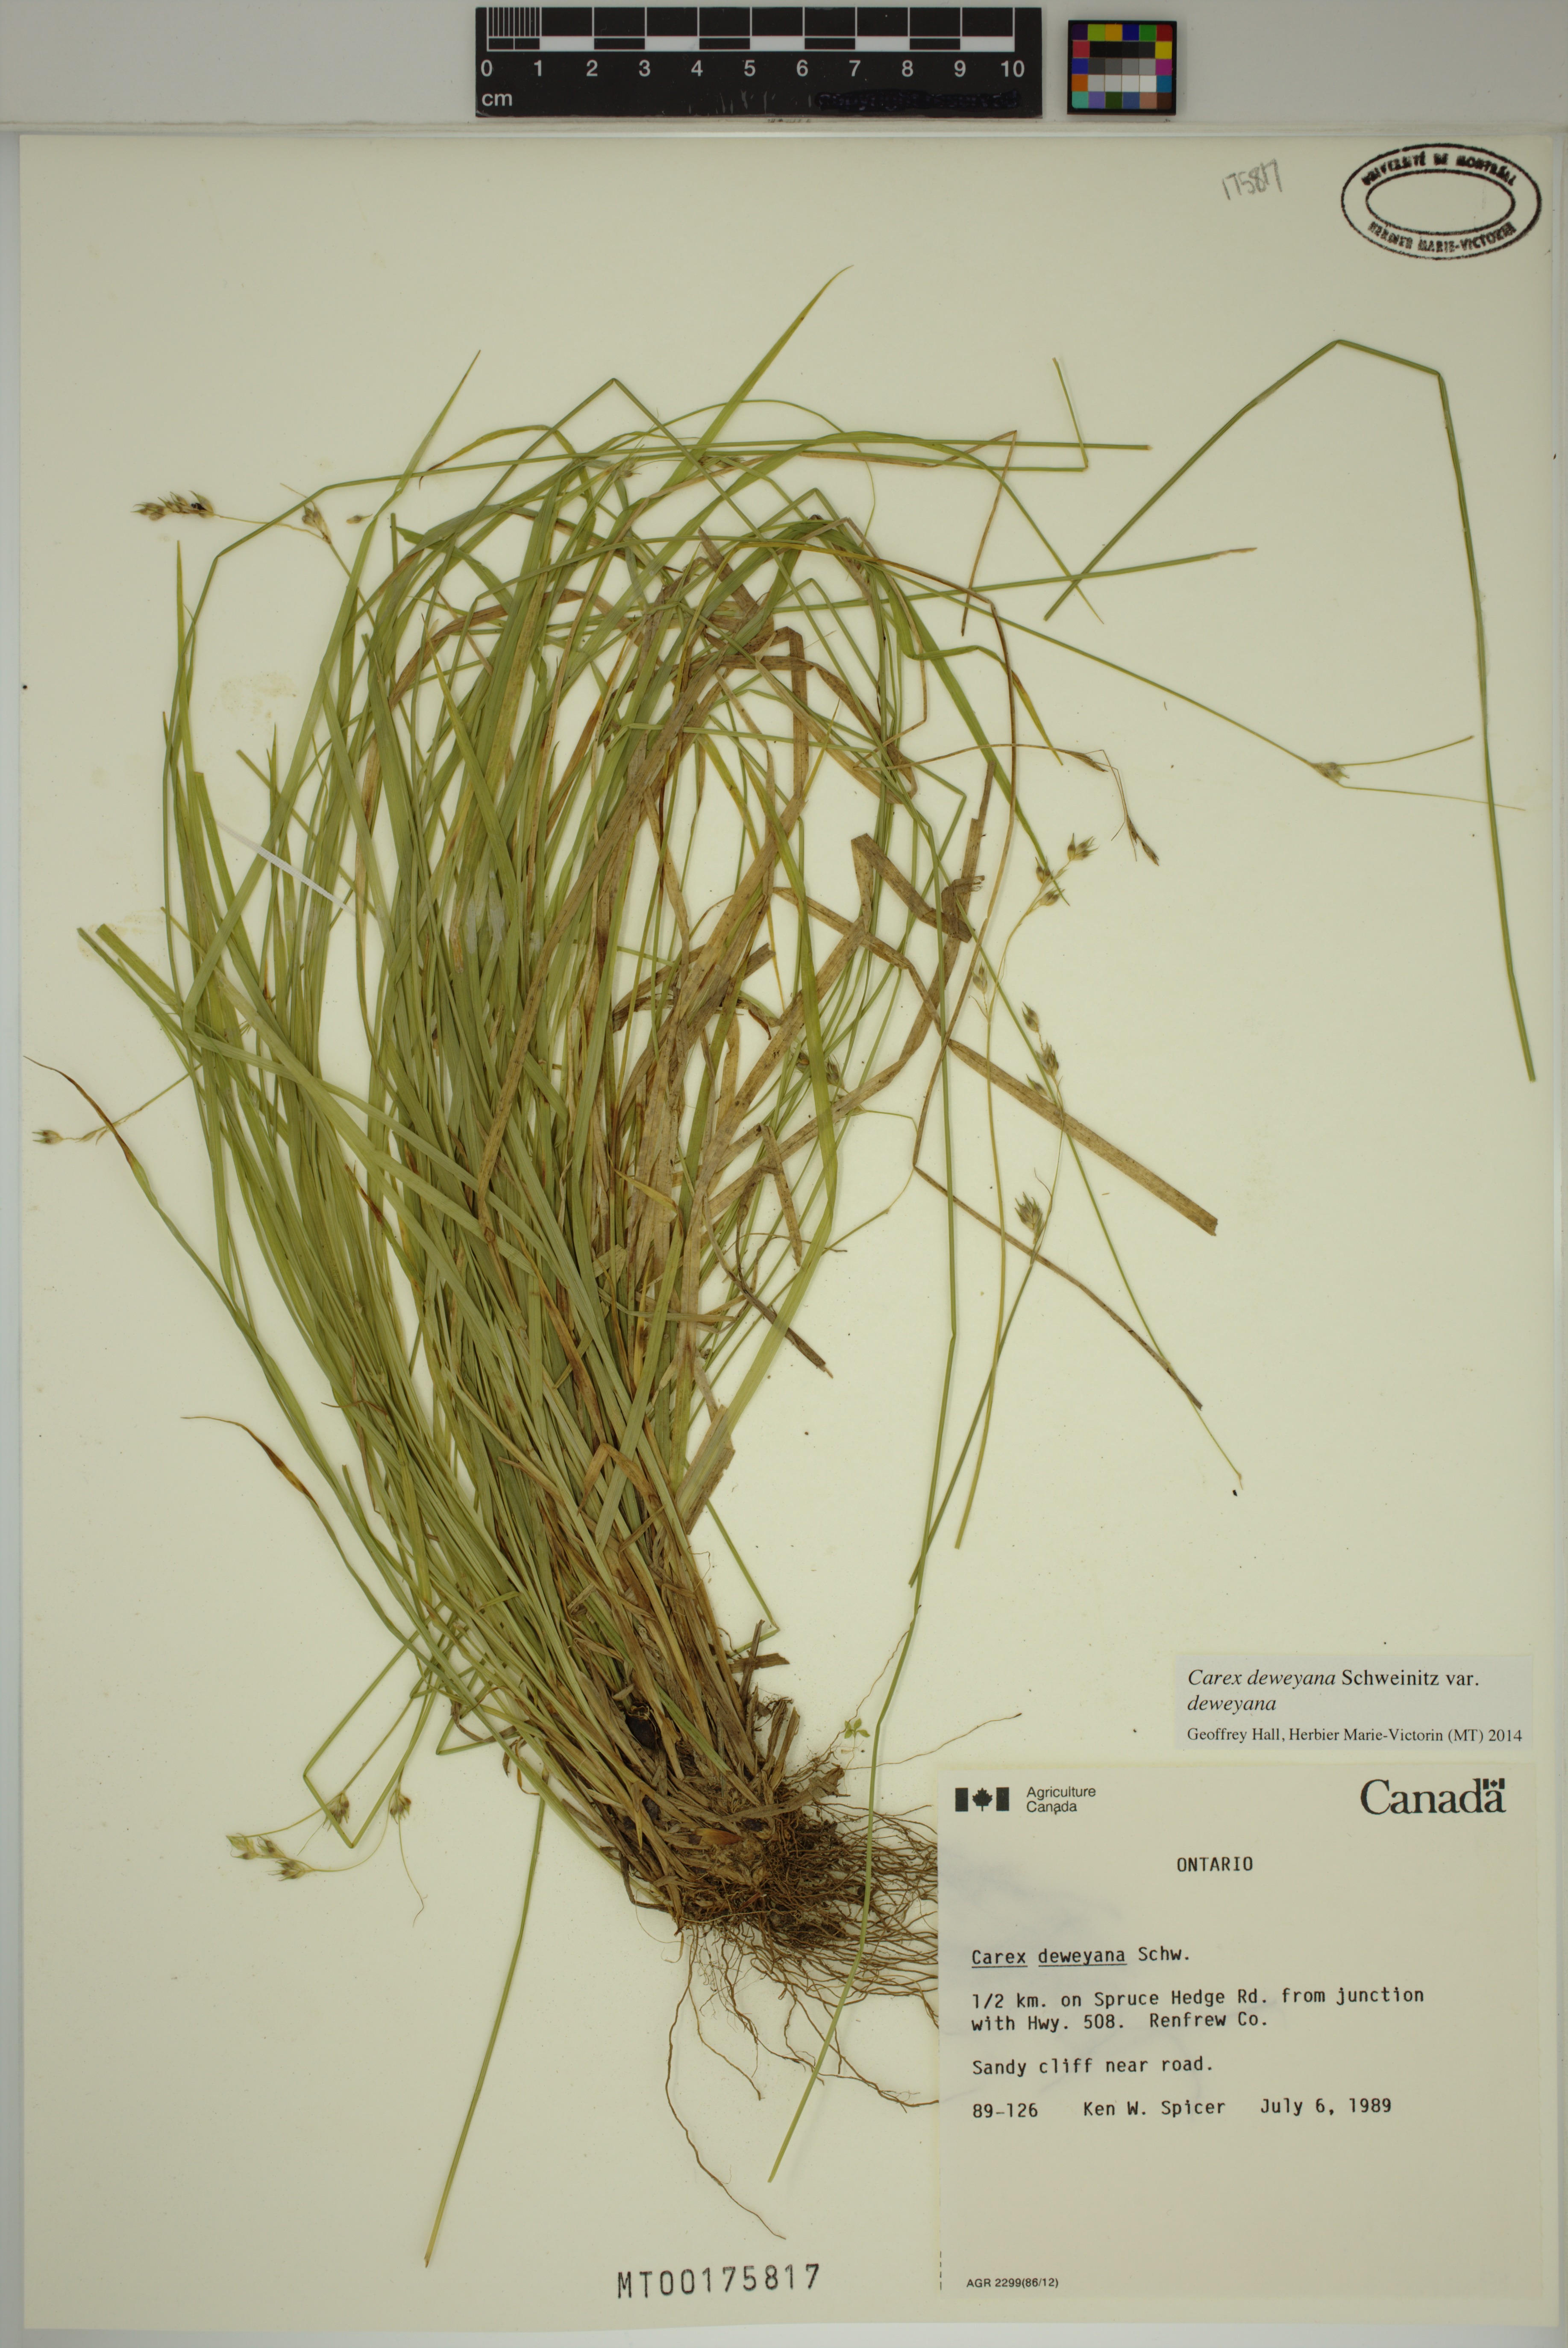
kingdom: Plantae
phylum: Tracheophyta
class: Liliopsida
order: Poales
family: Cyperaceae
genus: Carex
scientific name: Carex deweyana
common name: Dewey's sedge
